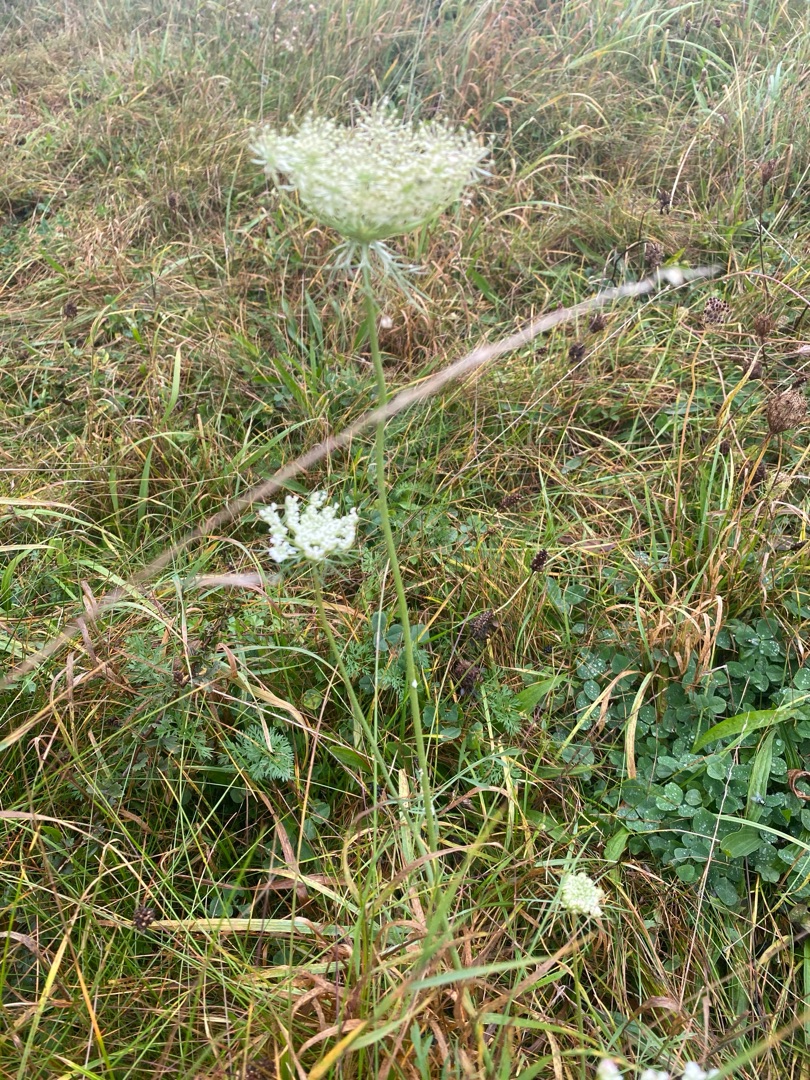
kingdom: Plantae
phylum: Tracheophyta
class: Magnoliopsida
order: Apiales
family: Apiaceae
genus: Daucus
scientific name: Daucus carota
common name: Gulerod
